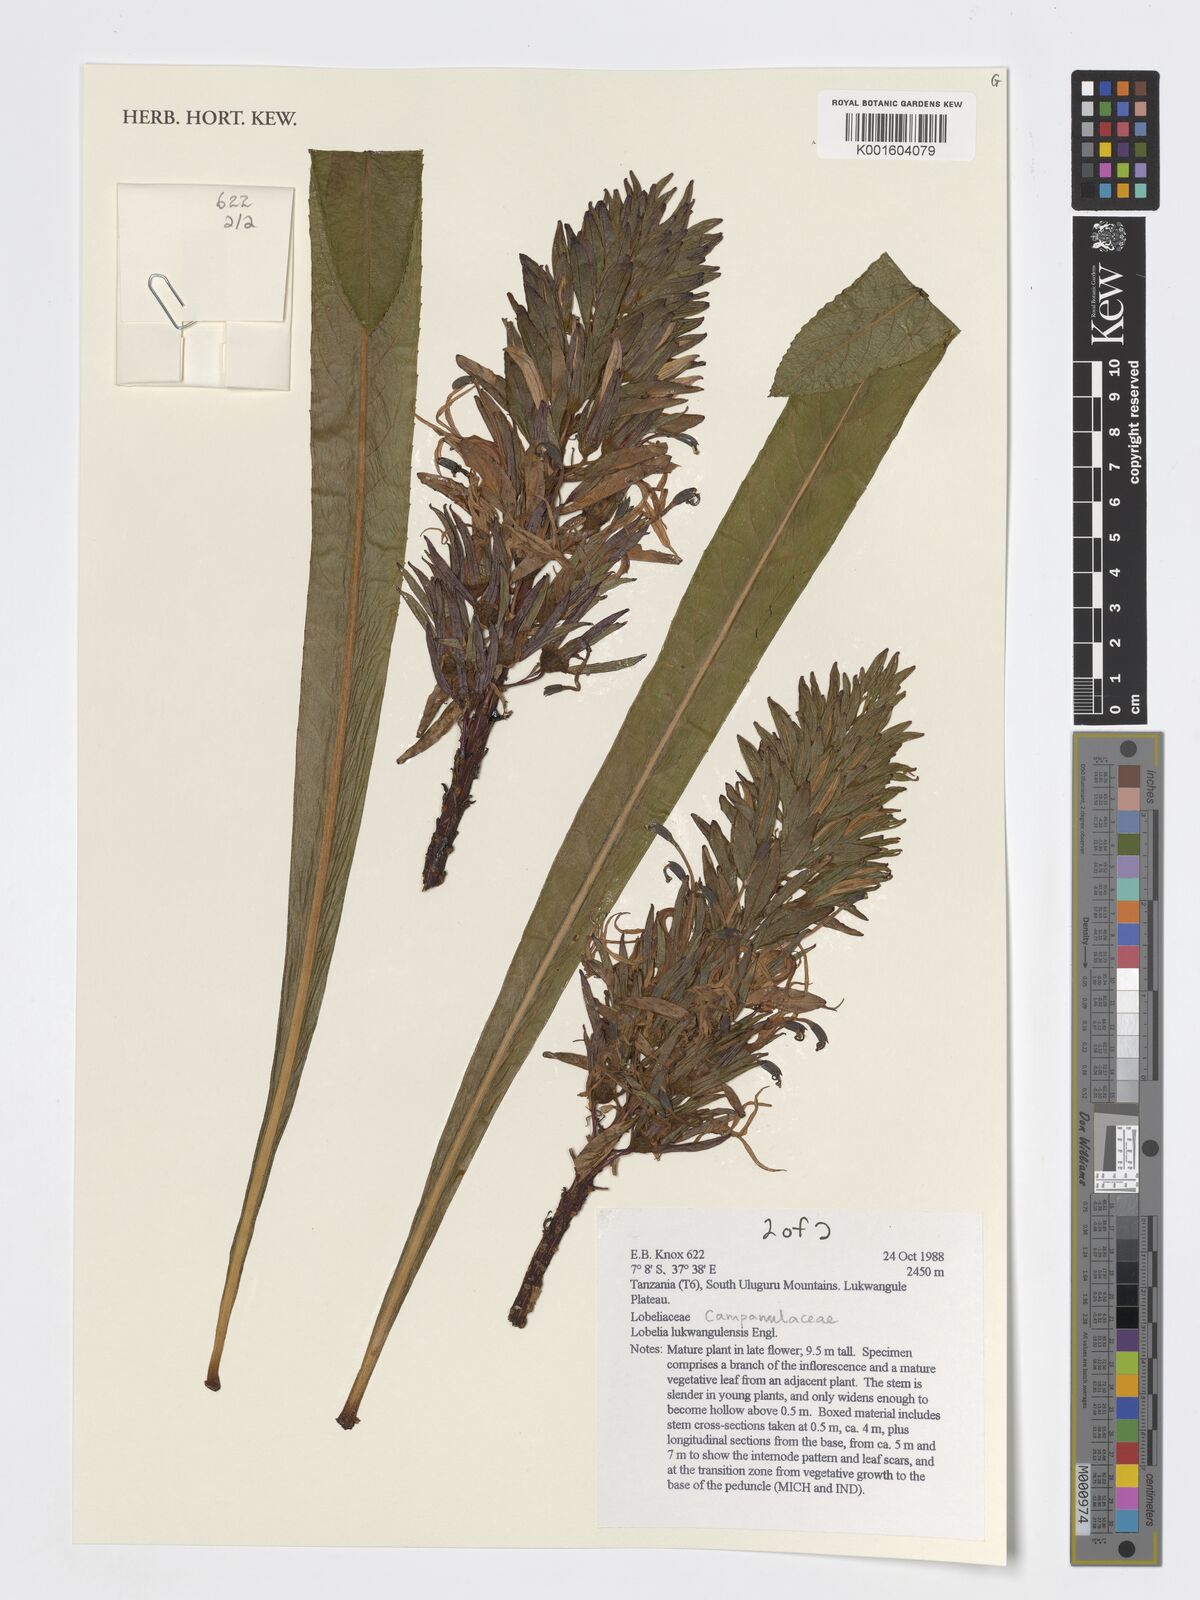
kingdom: Plantae
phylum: Tracheophyta
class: Magnoliopsida
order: Asterales
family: Campanulaceae
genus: Lobelia
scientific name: Lobelia lukwangulensis
